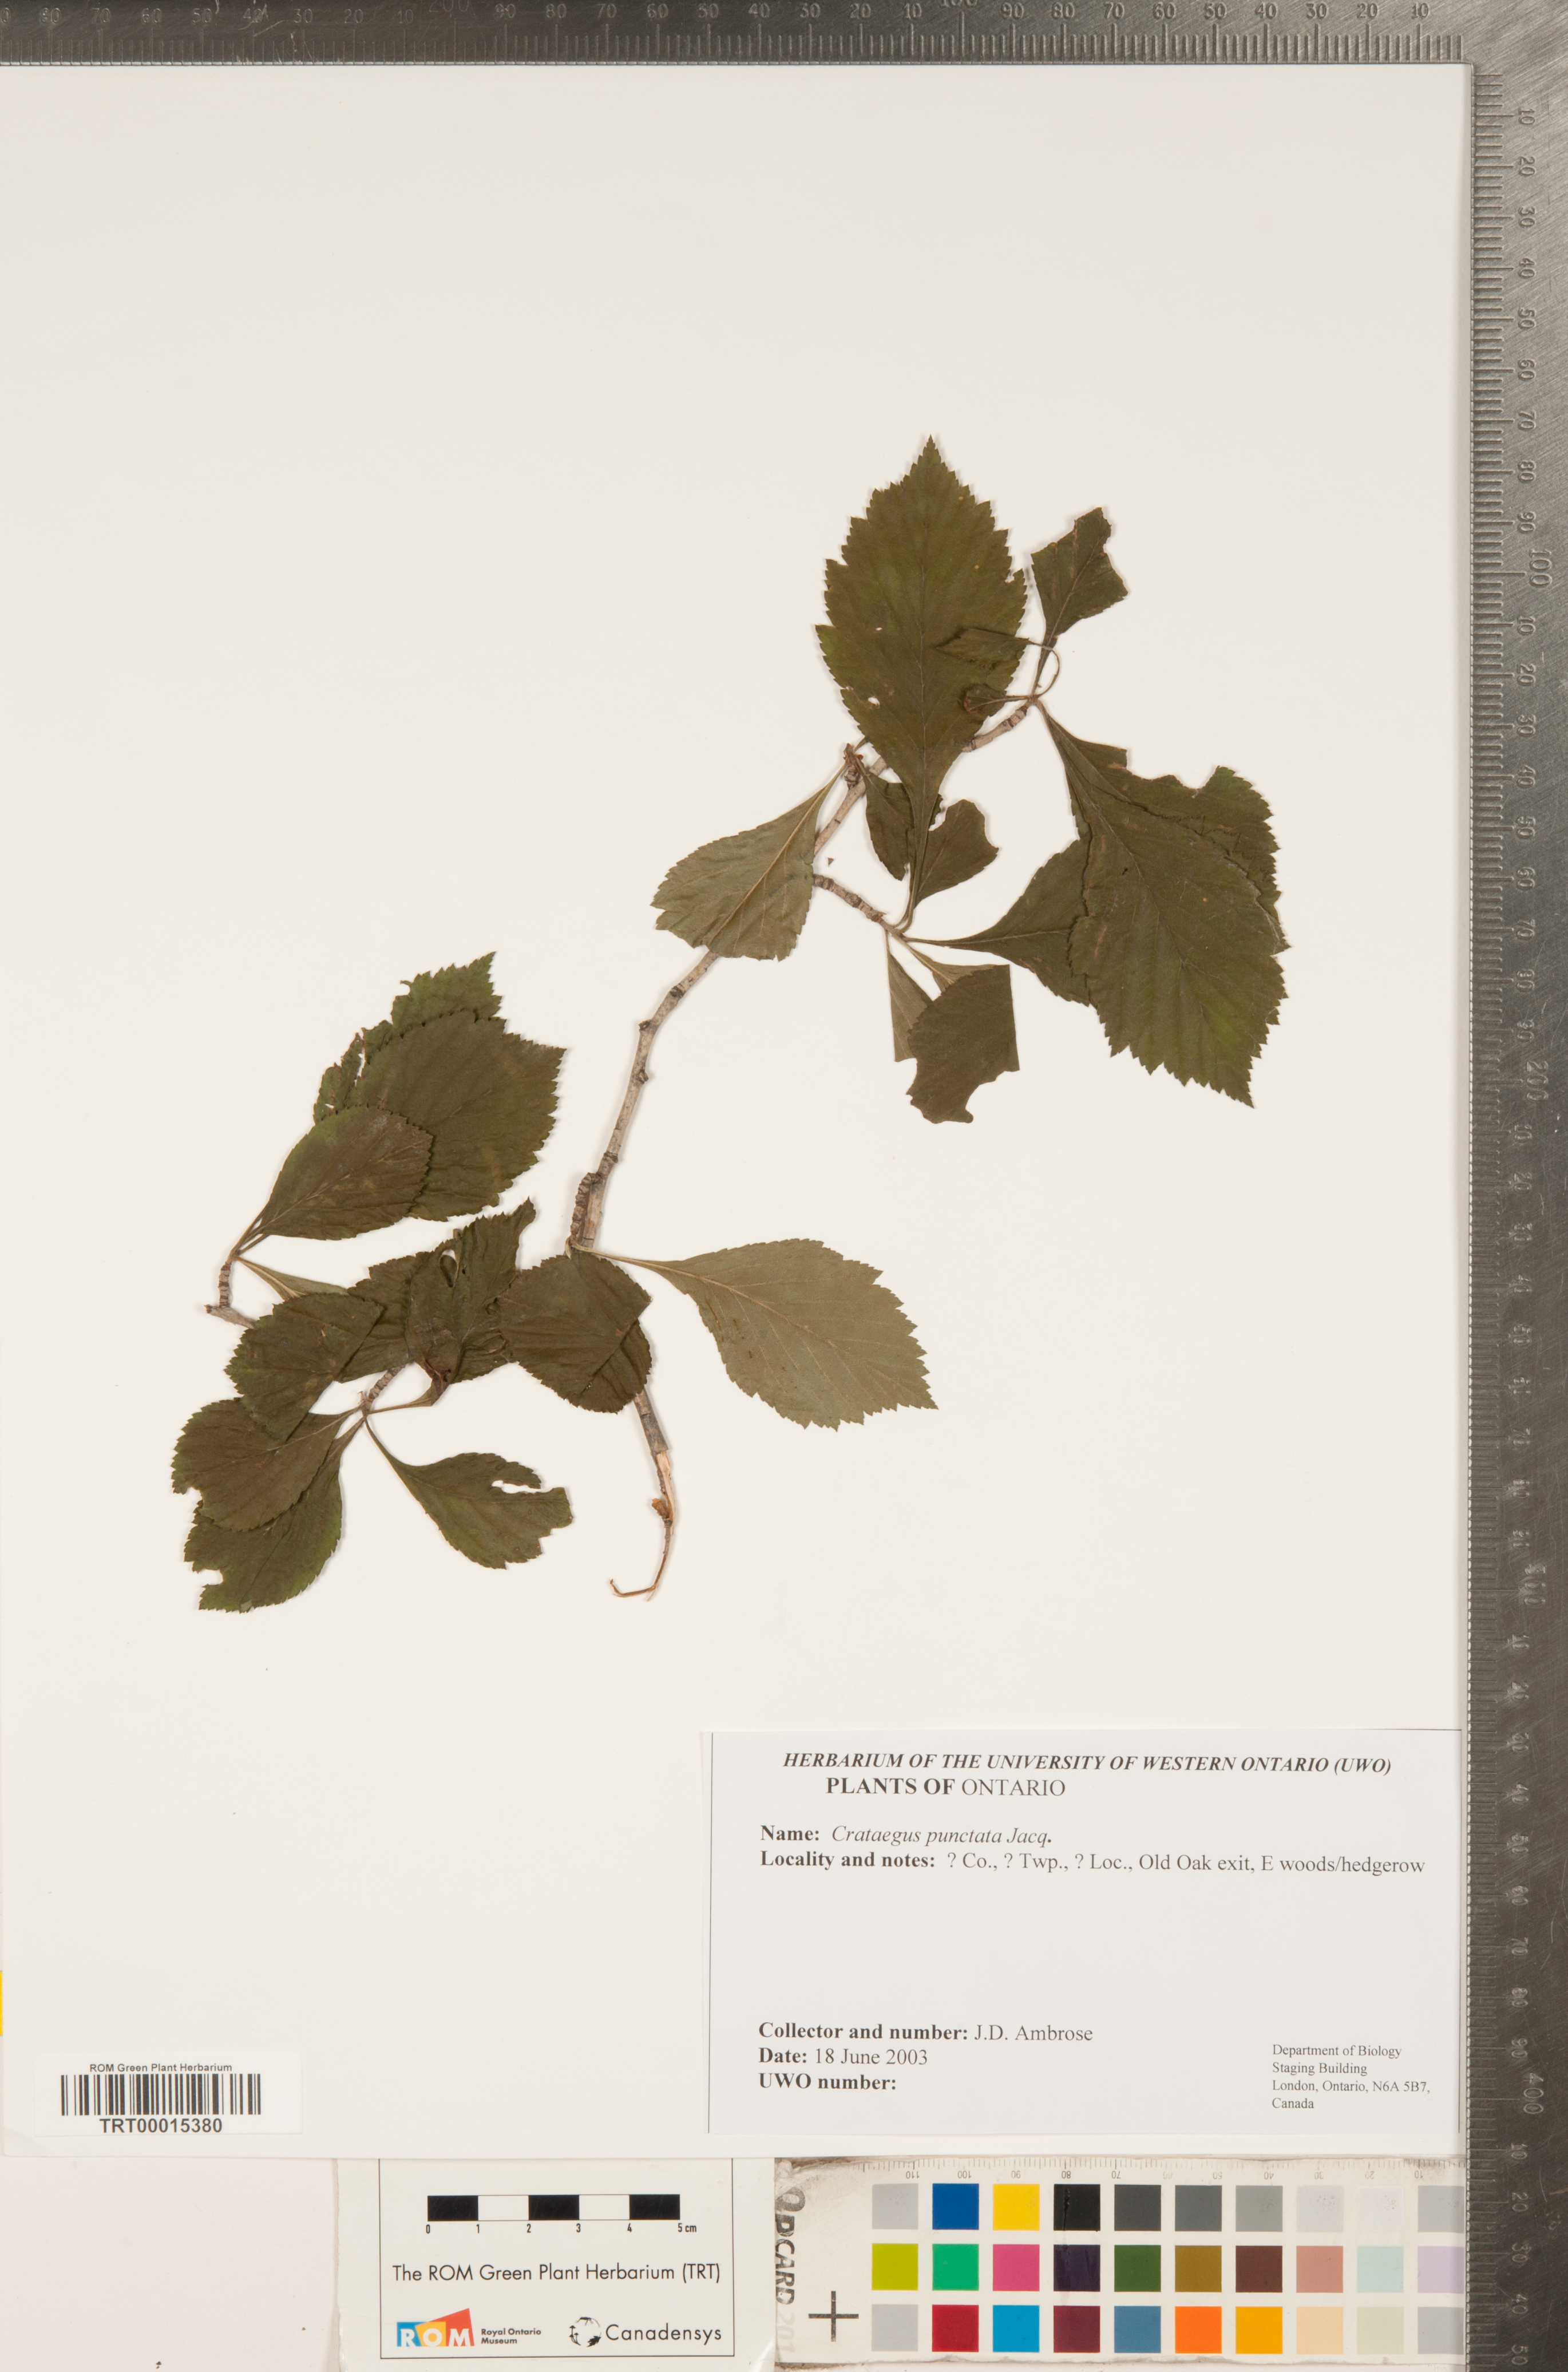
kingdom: Plantae
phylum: Tracheophyta
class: Magnoliopsida
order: Rosales
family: Rosaceae
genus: Crataegus
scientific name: Crataegus punctata
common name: Dotted hawthorn
